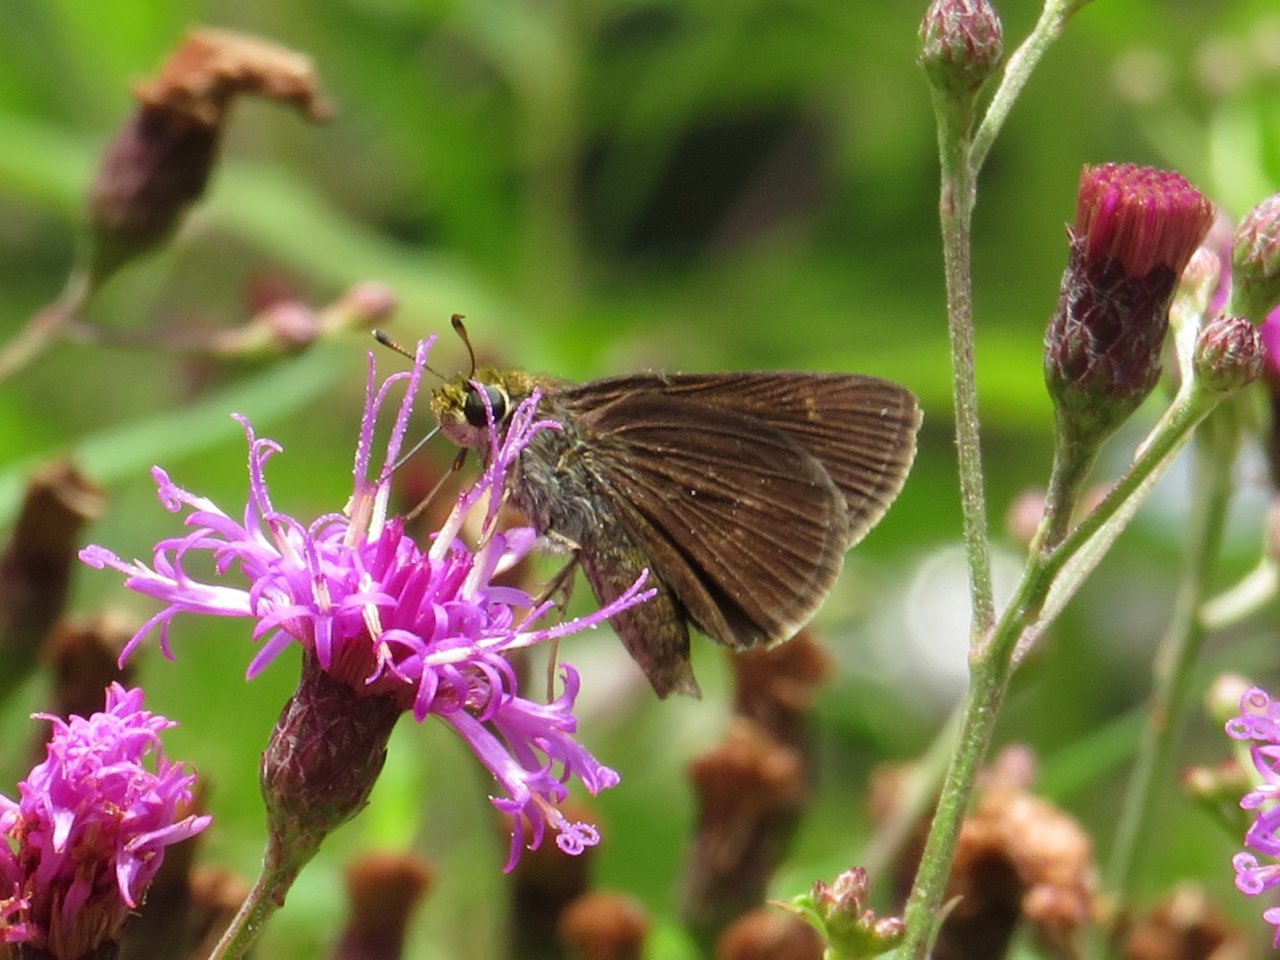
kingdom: Animalia
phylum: Arthropoda
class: Insecta
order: Lepidoptera
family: Hesperiidae
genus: Euphyes
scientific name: Euphyes vestris
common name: Dun Skipper
